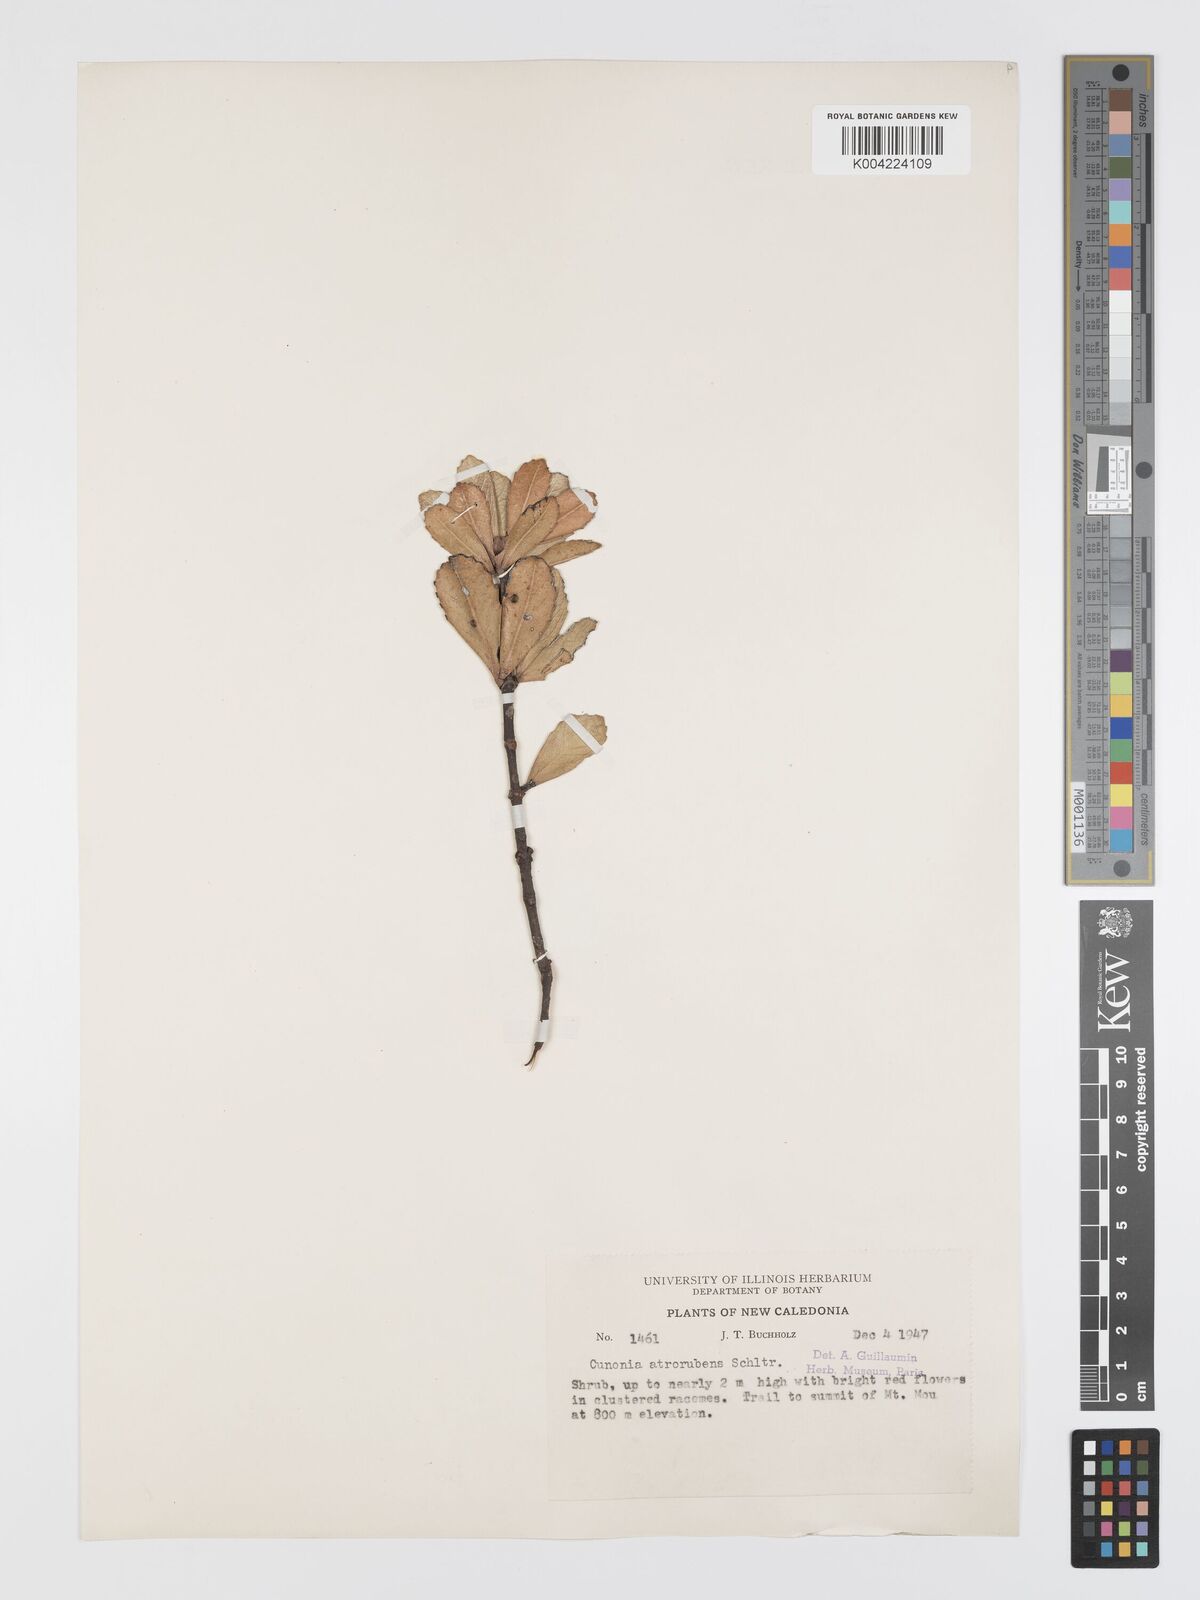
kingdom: Plantae
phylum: Tracheophyta
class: Magnoliopsida
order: Oxalidales
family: Cunoniaceae
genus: Cunonia
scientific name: Cunonia atrorubens
